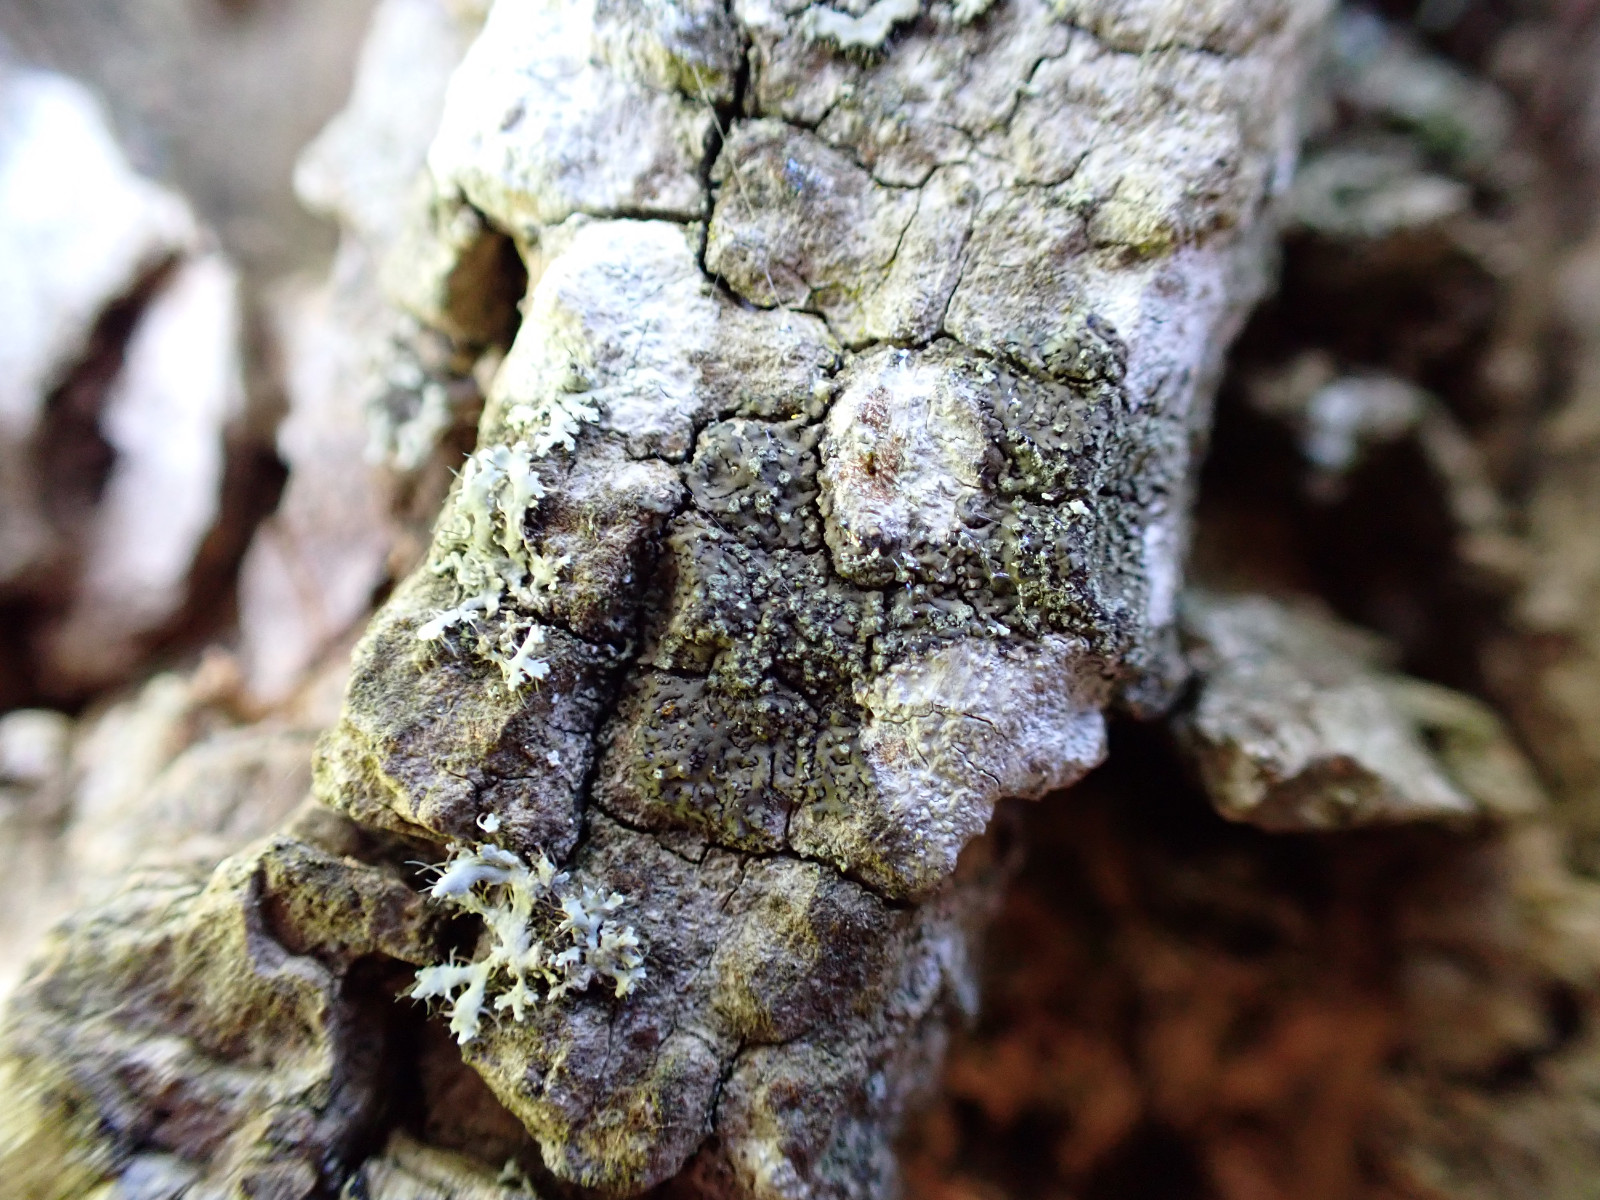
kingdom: Fungi
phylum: Ascomycota
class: Lecanoromycetes
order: Caliciales
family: Physciaceae
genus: Hyperphyscia
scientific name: Hyperphyscia adglutinata
